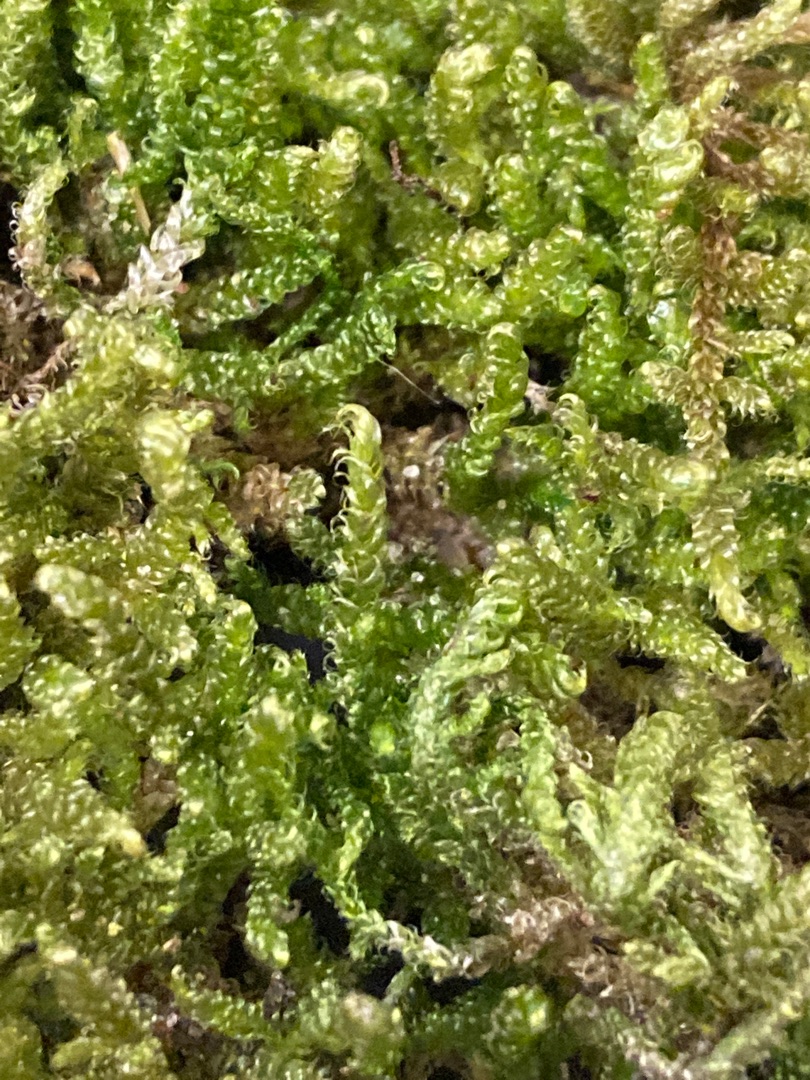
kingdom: Plantae
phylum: Bryophyta
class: Bryopsida
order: Hypnales
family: Hypnaceae
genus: Hypnum
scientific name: Hypnum cupressiforme
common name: Almindelig cypresmos
